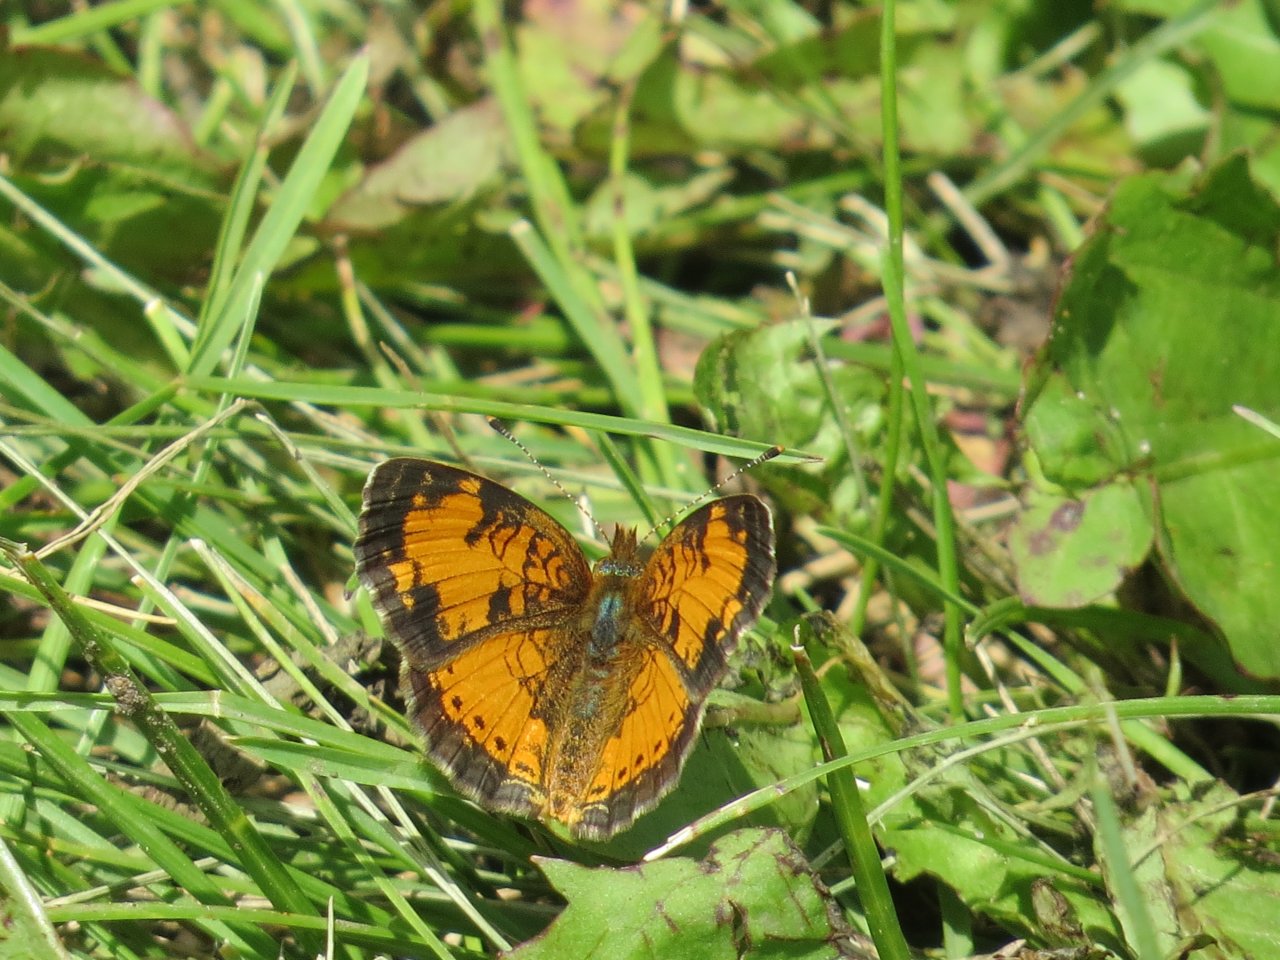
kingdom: Animalia
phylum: Arthropoda
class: Insecta
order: Lepidoptera
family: Nymphalidae
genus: Phyciodes
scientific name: Phyciodes tharos
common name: Northern Crescent
